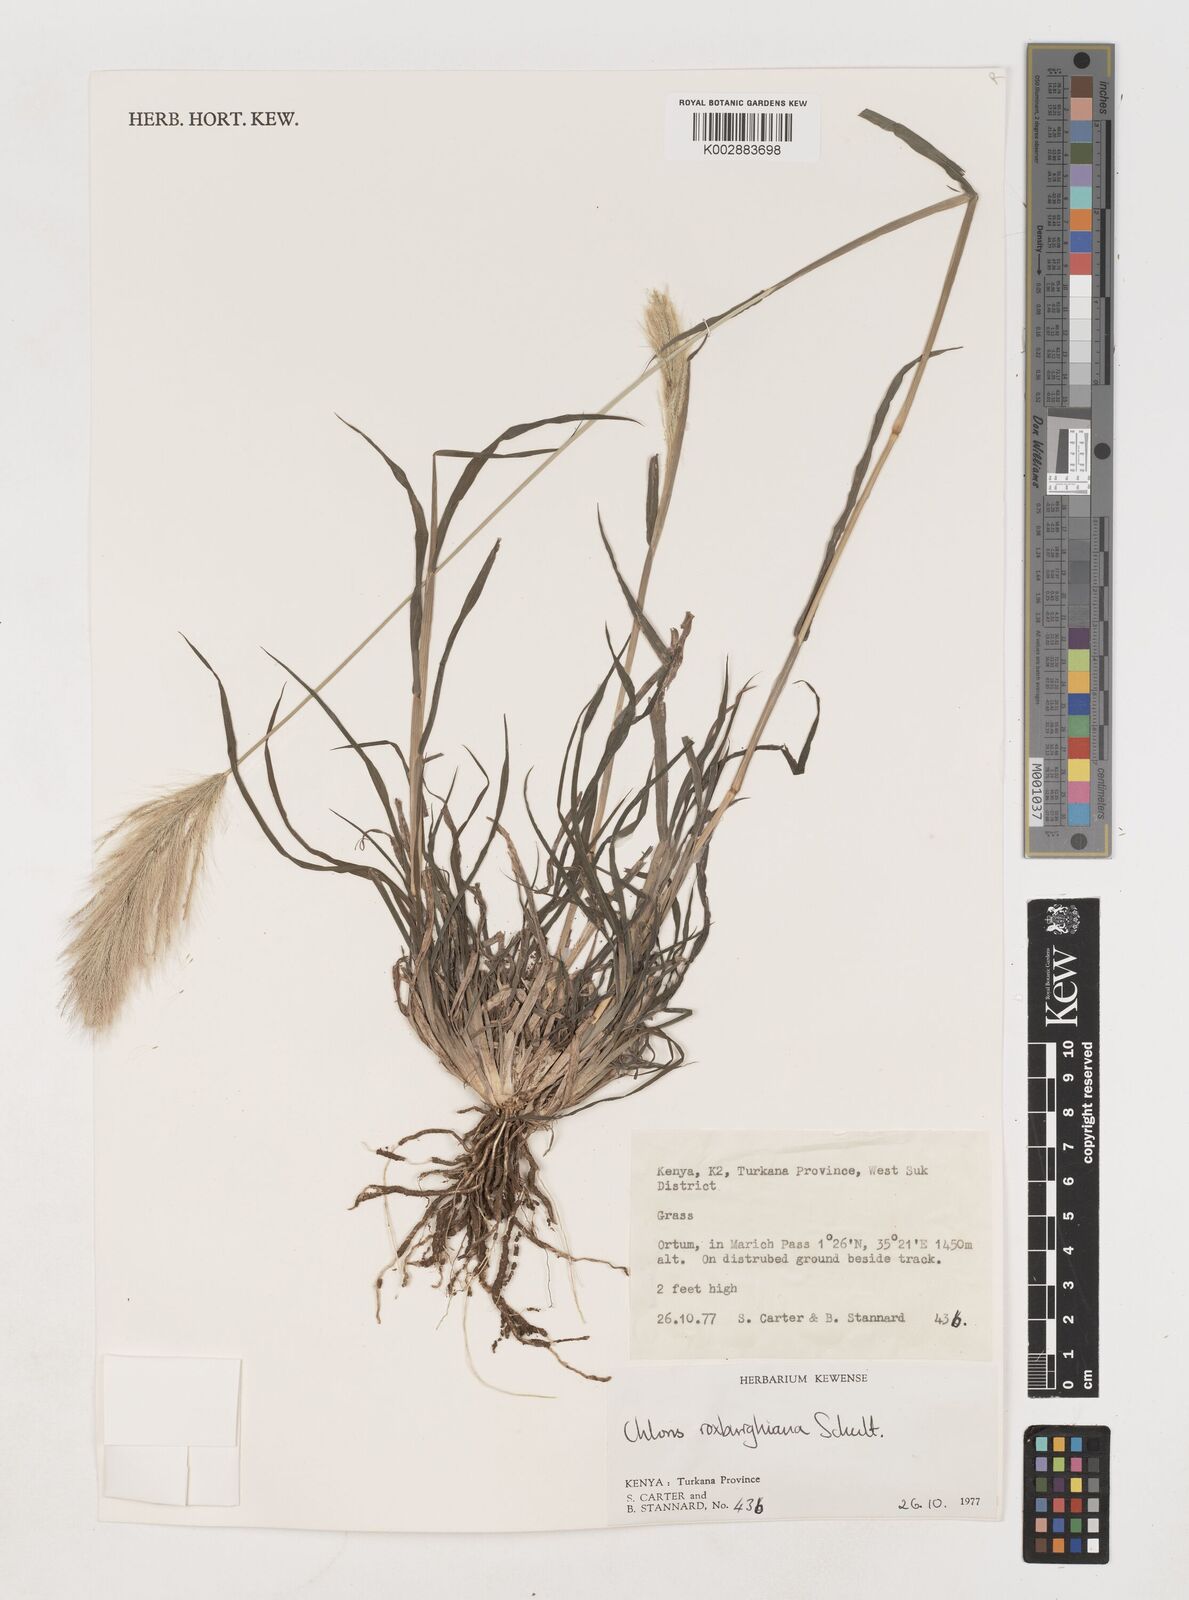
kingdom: Plantae
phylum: Tracheophyta
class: Liliopsida
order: Poales
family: Poaceae
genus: Tetrapogon
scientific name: Tetrapogon roxburghiana
